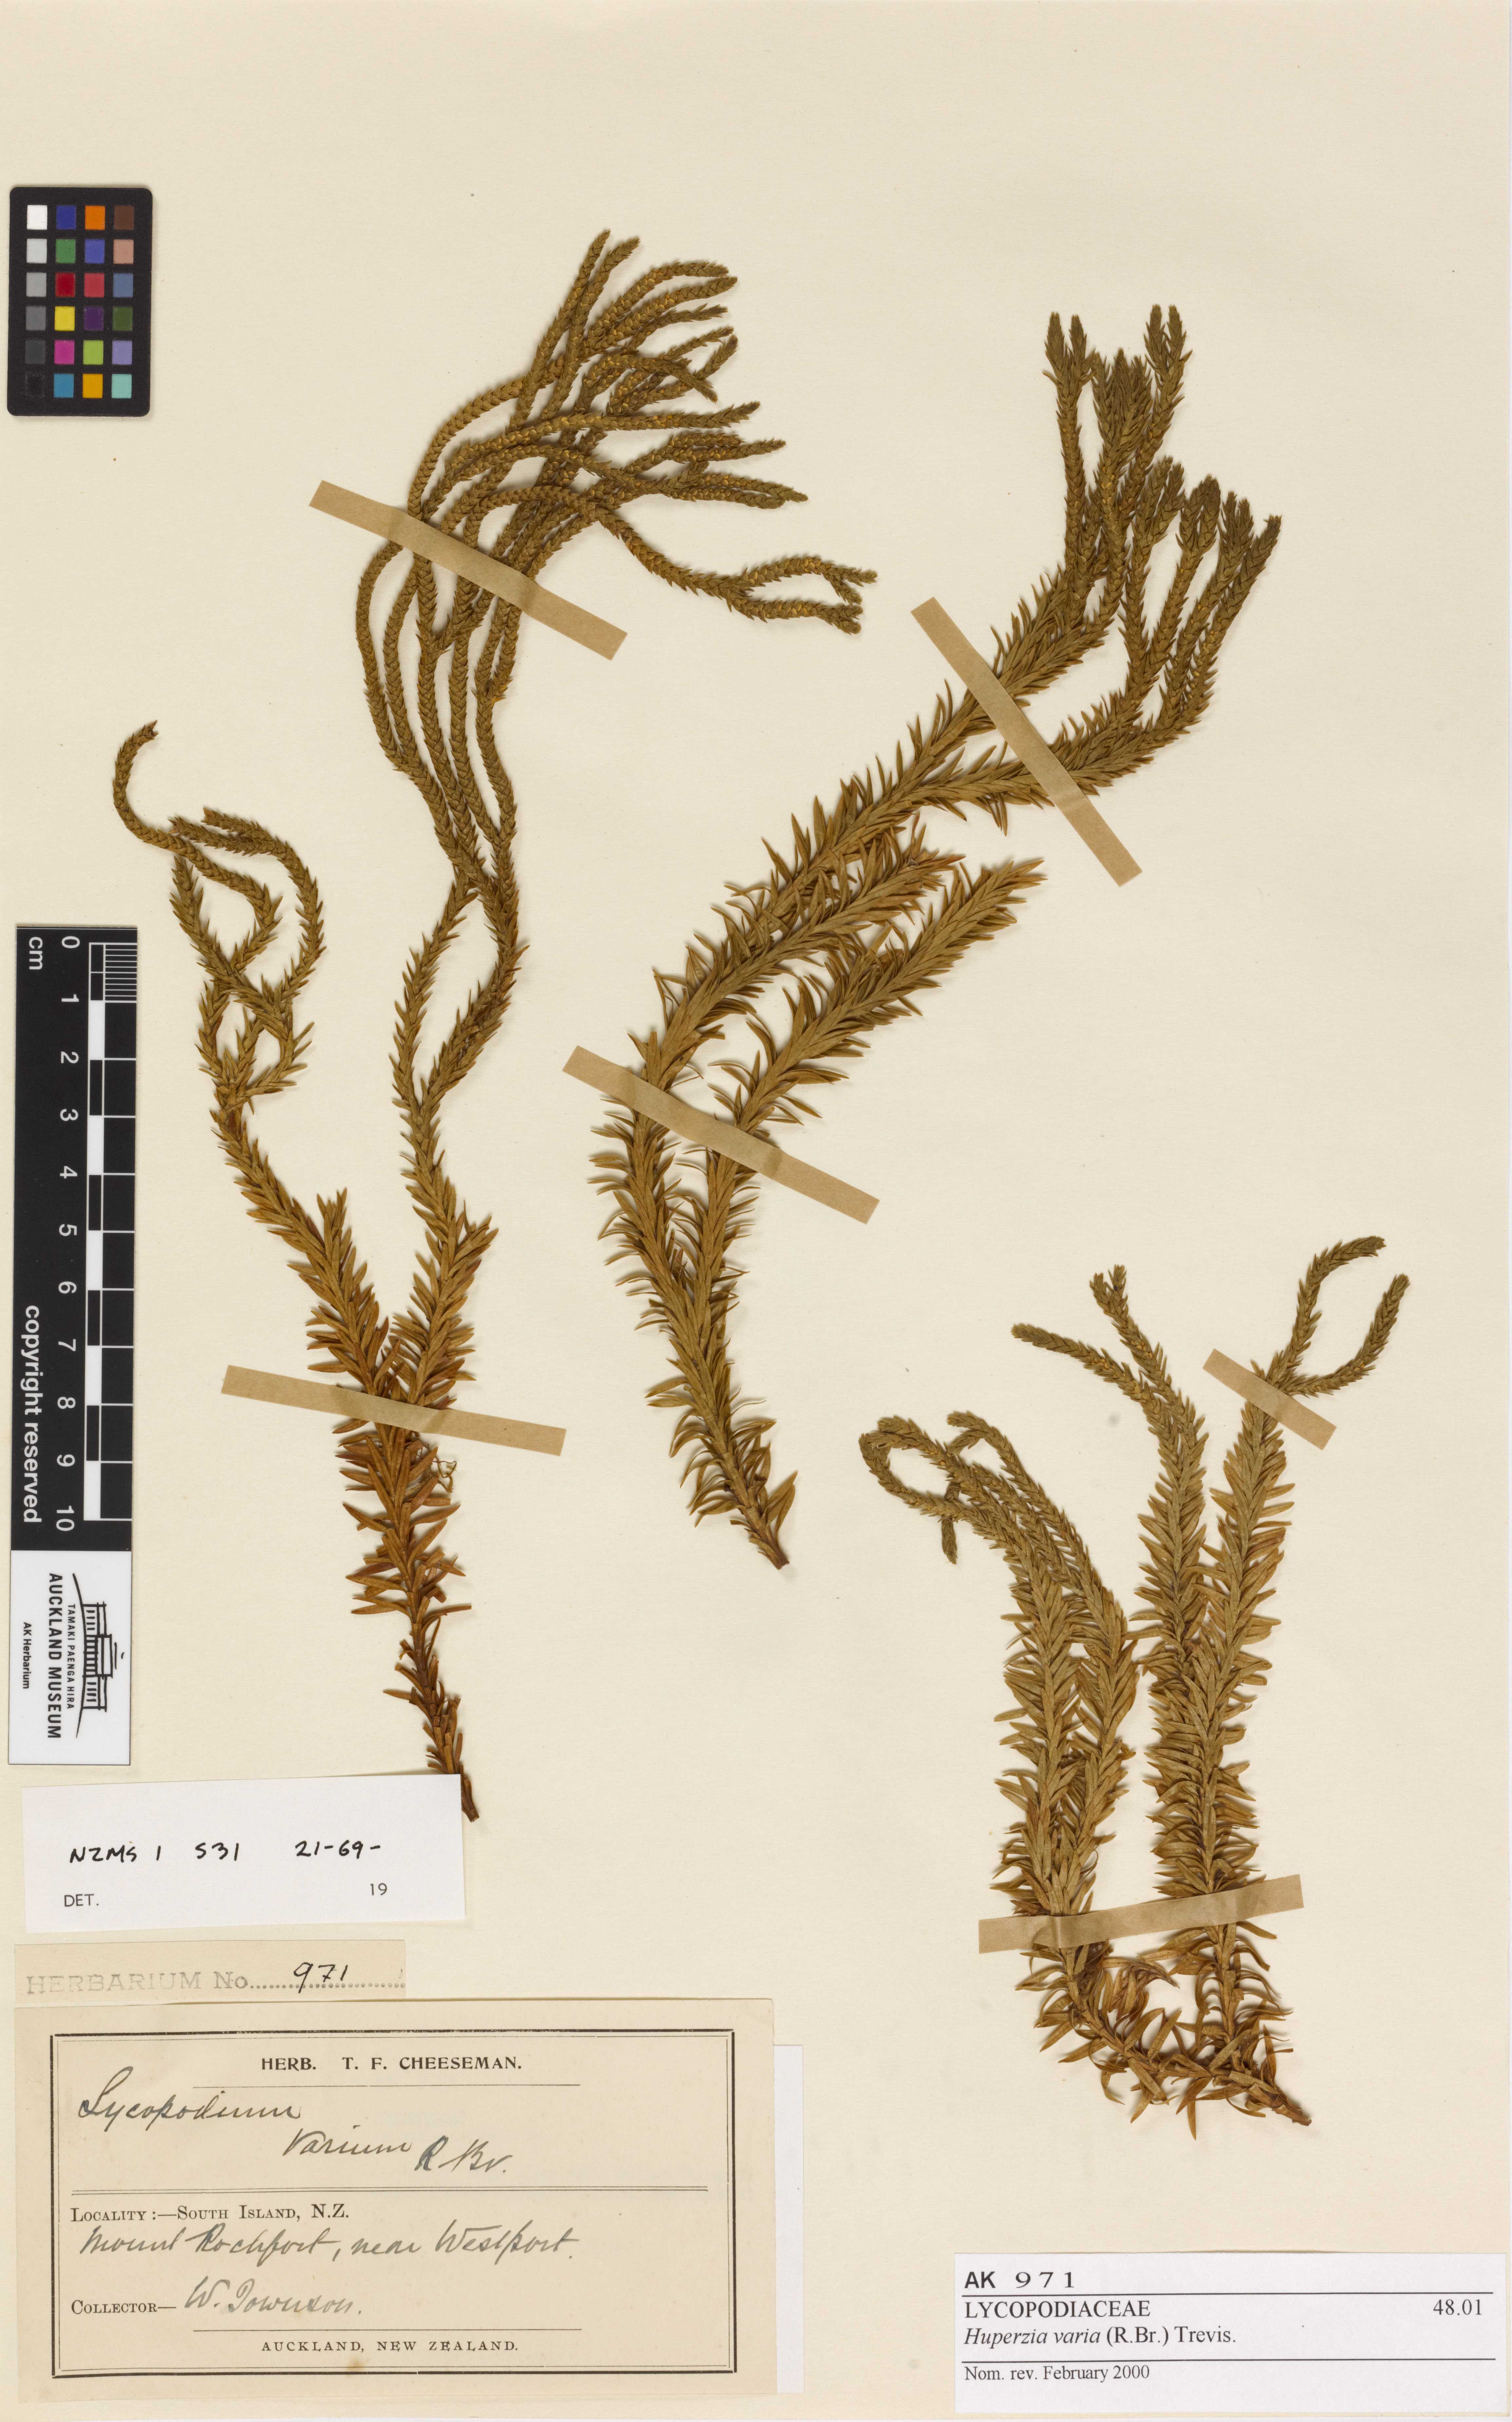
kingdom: Plantae
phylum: Tracheophyta
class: Lycopodiopsida
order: Lycopodiales
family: Lycopodiaceae
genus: Phlegmariurus
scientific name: Phlegmariurus varius
